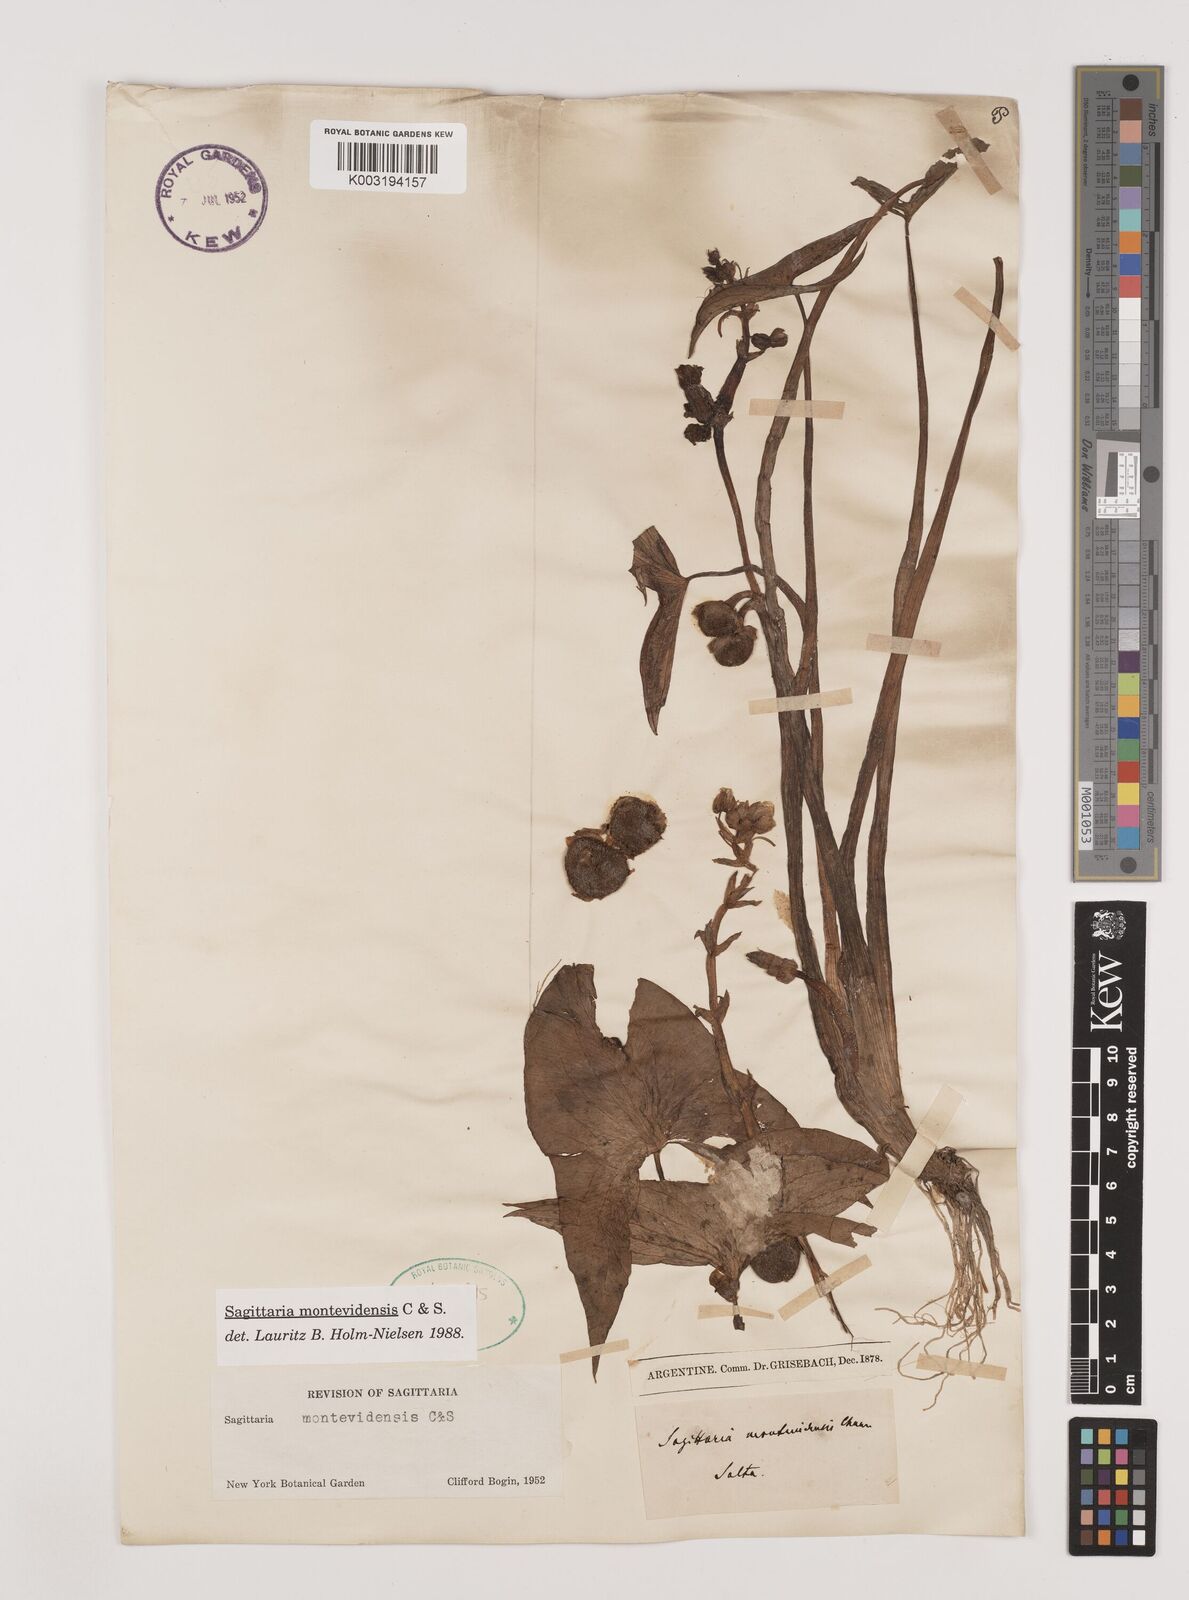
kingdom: Plantae
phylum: Tracheophyta
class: Liliopsida
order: Alismatales
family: Alismataceae
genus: Sagittaria
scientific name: Sagittaria montevidensis
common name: Giant arrowhead
